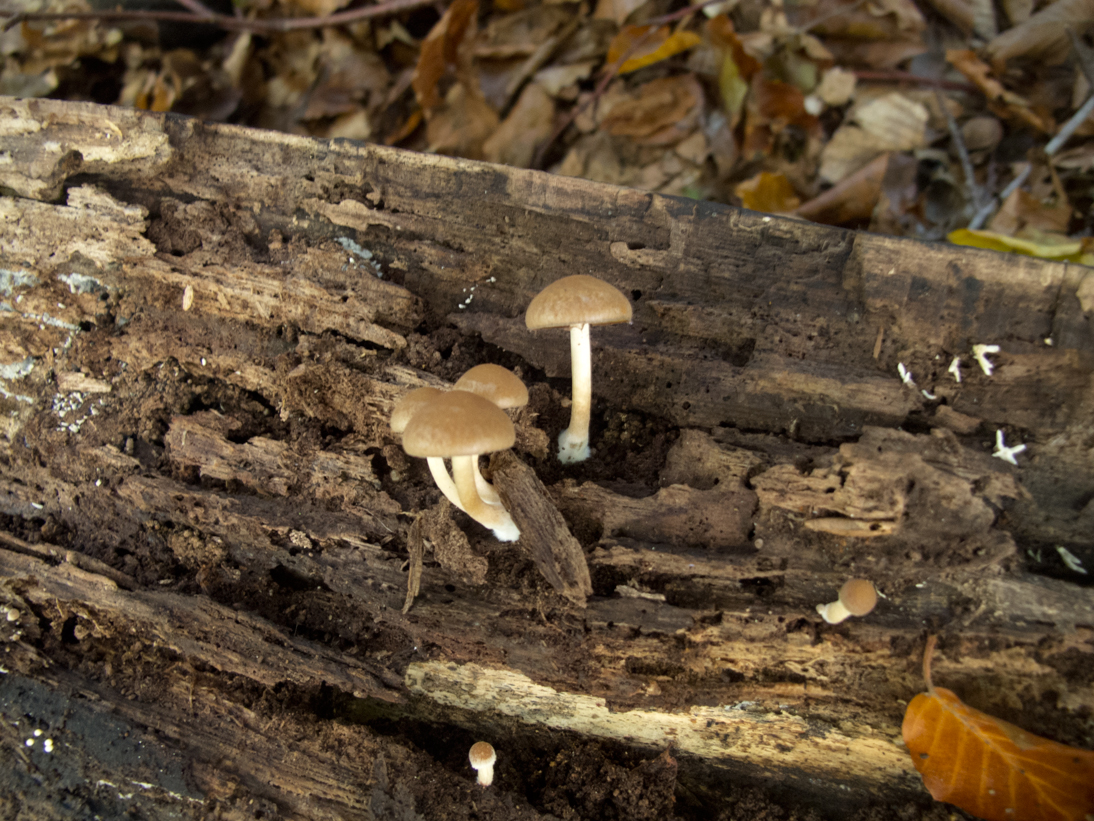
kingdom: Fungi
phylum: Basidiomycota
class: Agaricomycetes
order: Agaricales
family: Psathyrellaceae
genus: Psathyrella
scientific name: Psathyrella piluliformis
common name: lysstokket mørkhat
